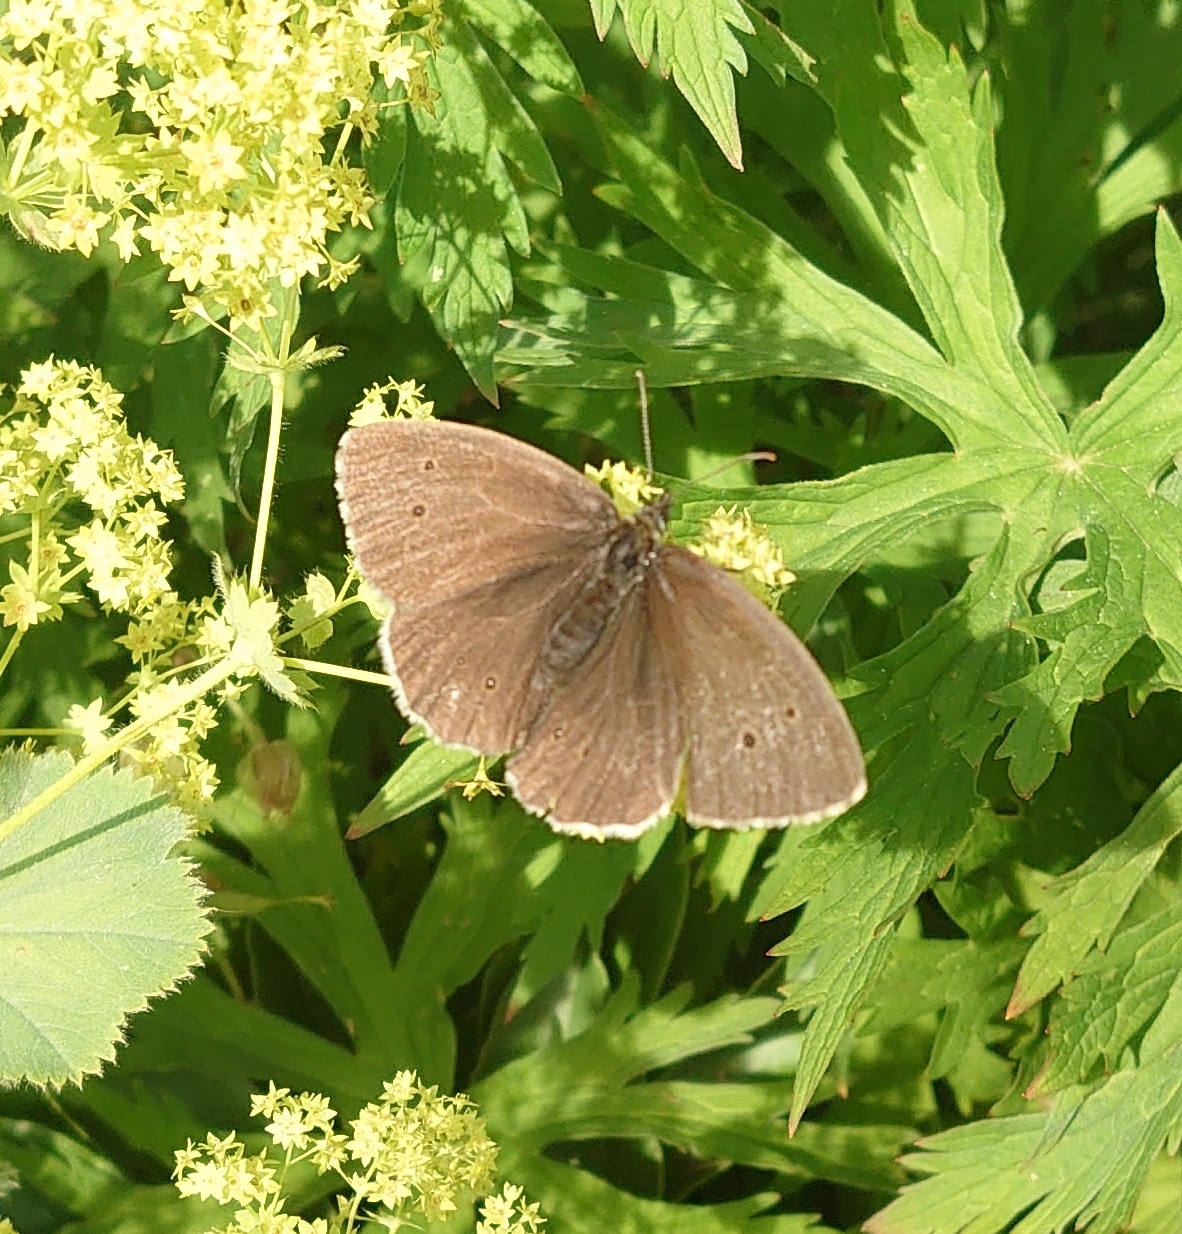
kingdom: Animalia
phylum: Arthropoda
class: Insecta
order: Lepidoptera
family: Nymphalidae
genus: Aphantopus
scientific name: Aphantopus hyperantus
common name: Engrandøje
